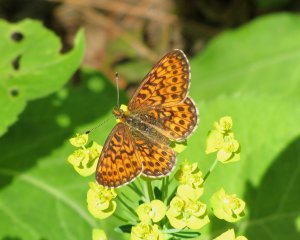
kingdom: Animalia
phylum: Arthropoda
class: Insecta
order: Lepidoptera
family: Nymphalidae
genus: Boloria
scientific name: Boloria selene
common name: Silver-bordered Fritillary
